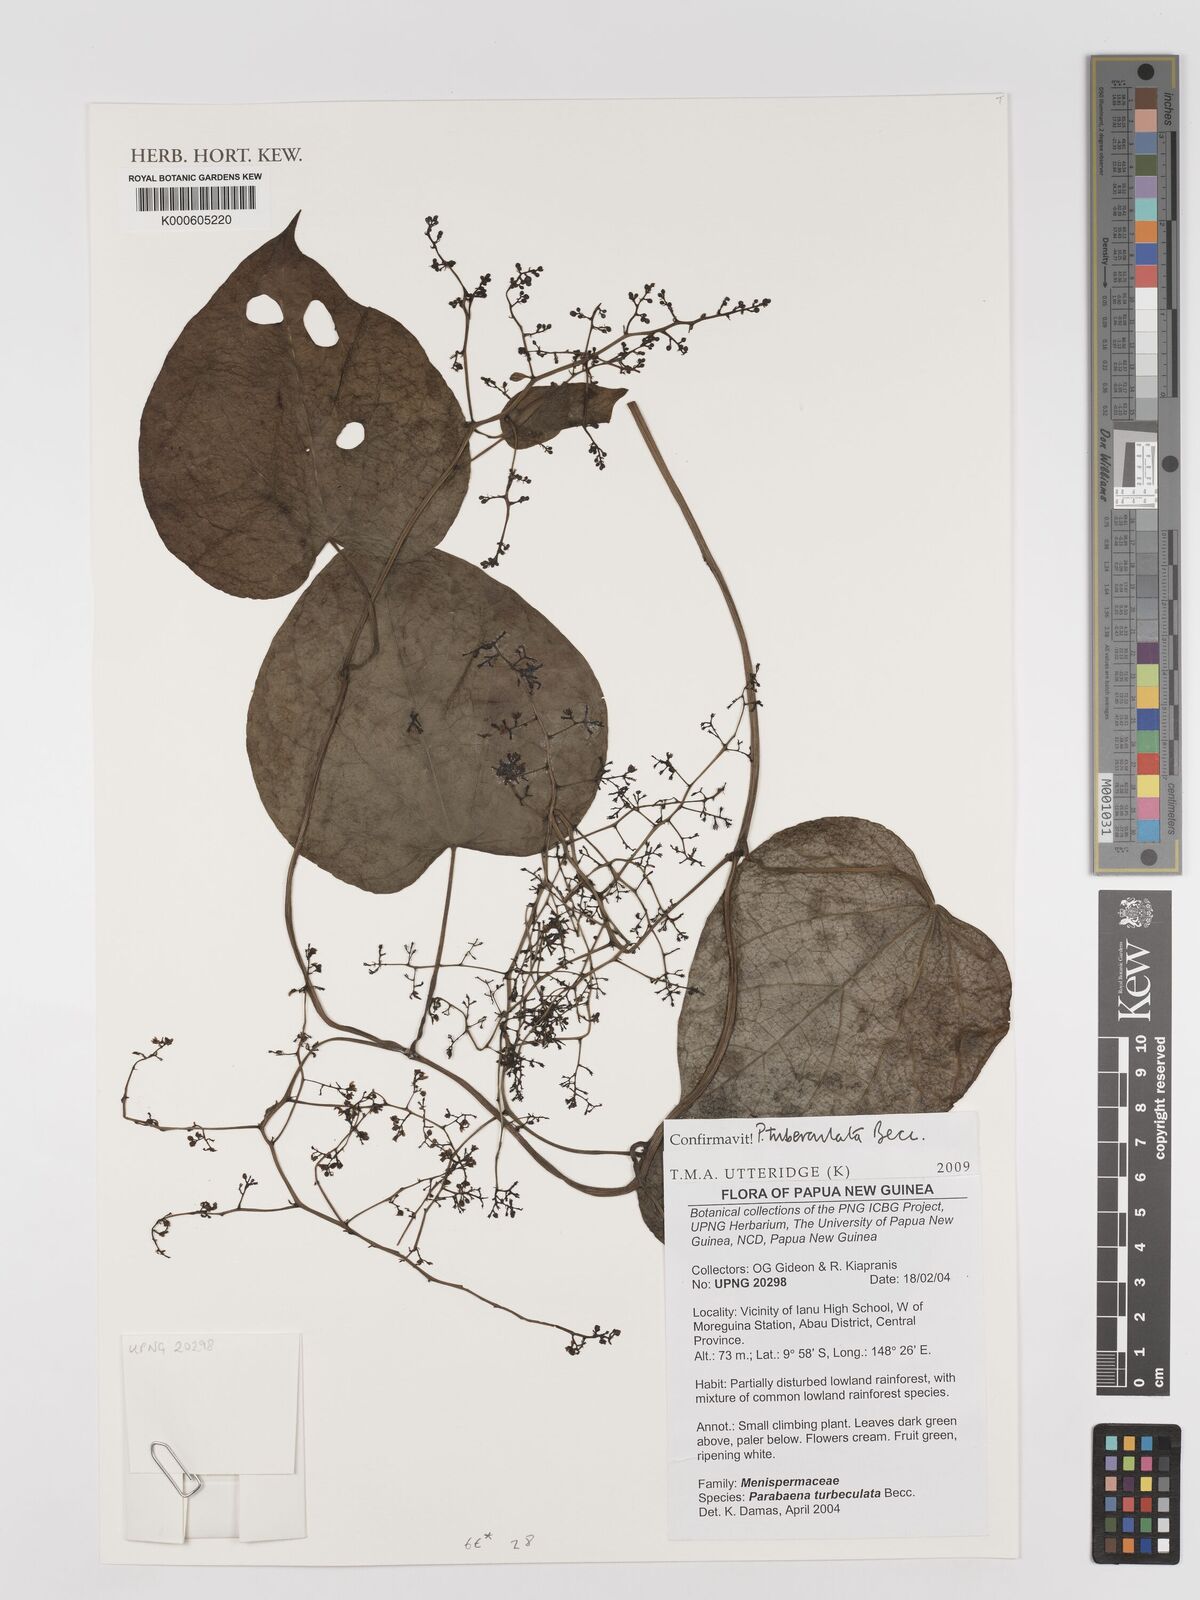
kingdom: Plantae
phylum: Tracheophyta
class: Magnoliopsida
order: Ranunculales
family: Menispermaceae
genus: Parabaena
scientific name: Parabaena tuberculata
